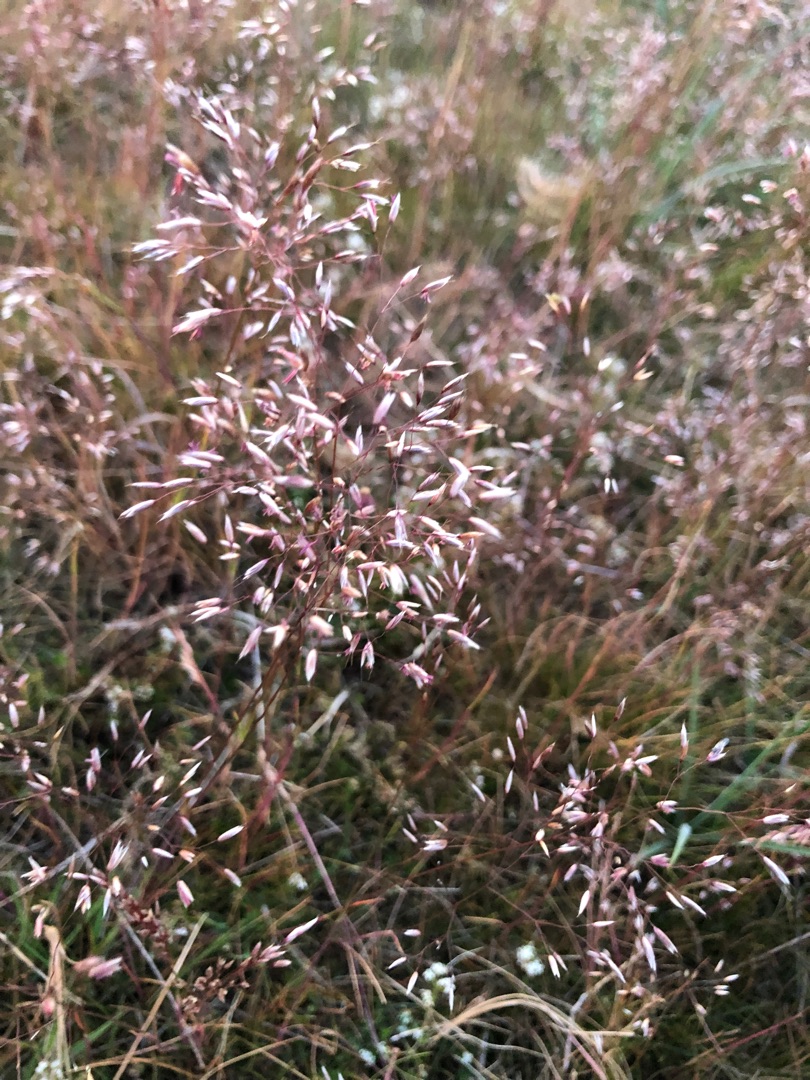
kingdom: Plantae
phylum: Tracheophyta
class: Liliopsida
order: Poales
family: Poaceae
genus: Avenella
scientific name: Avenella flexuosa
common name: Bølget bunke
